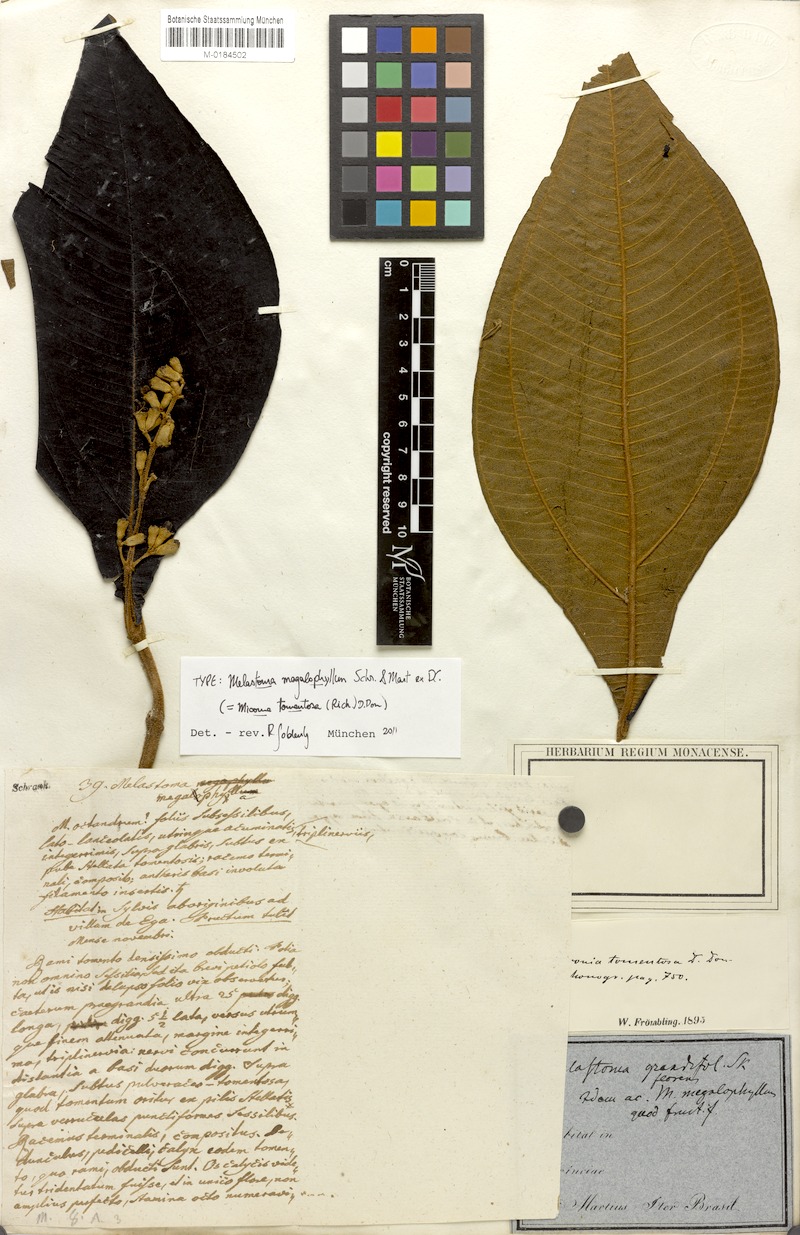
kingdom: Plantae
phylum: Tracheophyta
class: Magnoliopsida
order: Myrtales
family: Melastomataceae
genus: Miconia
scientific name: Miconia tomentosa
